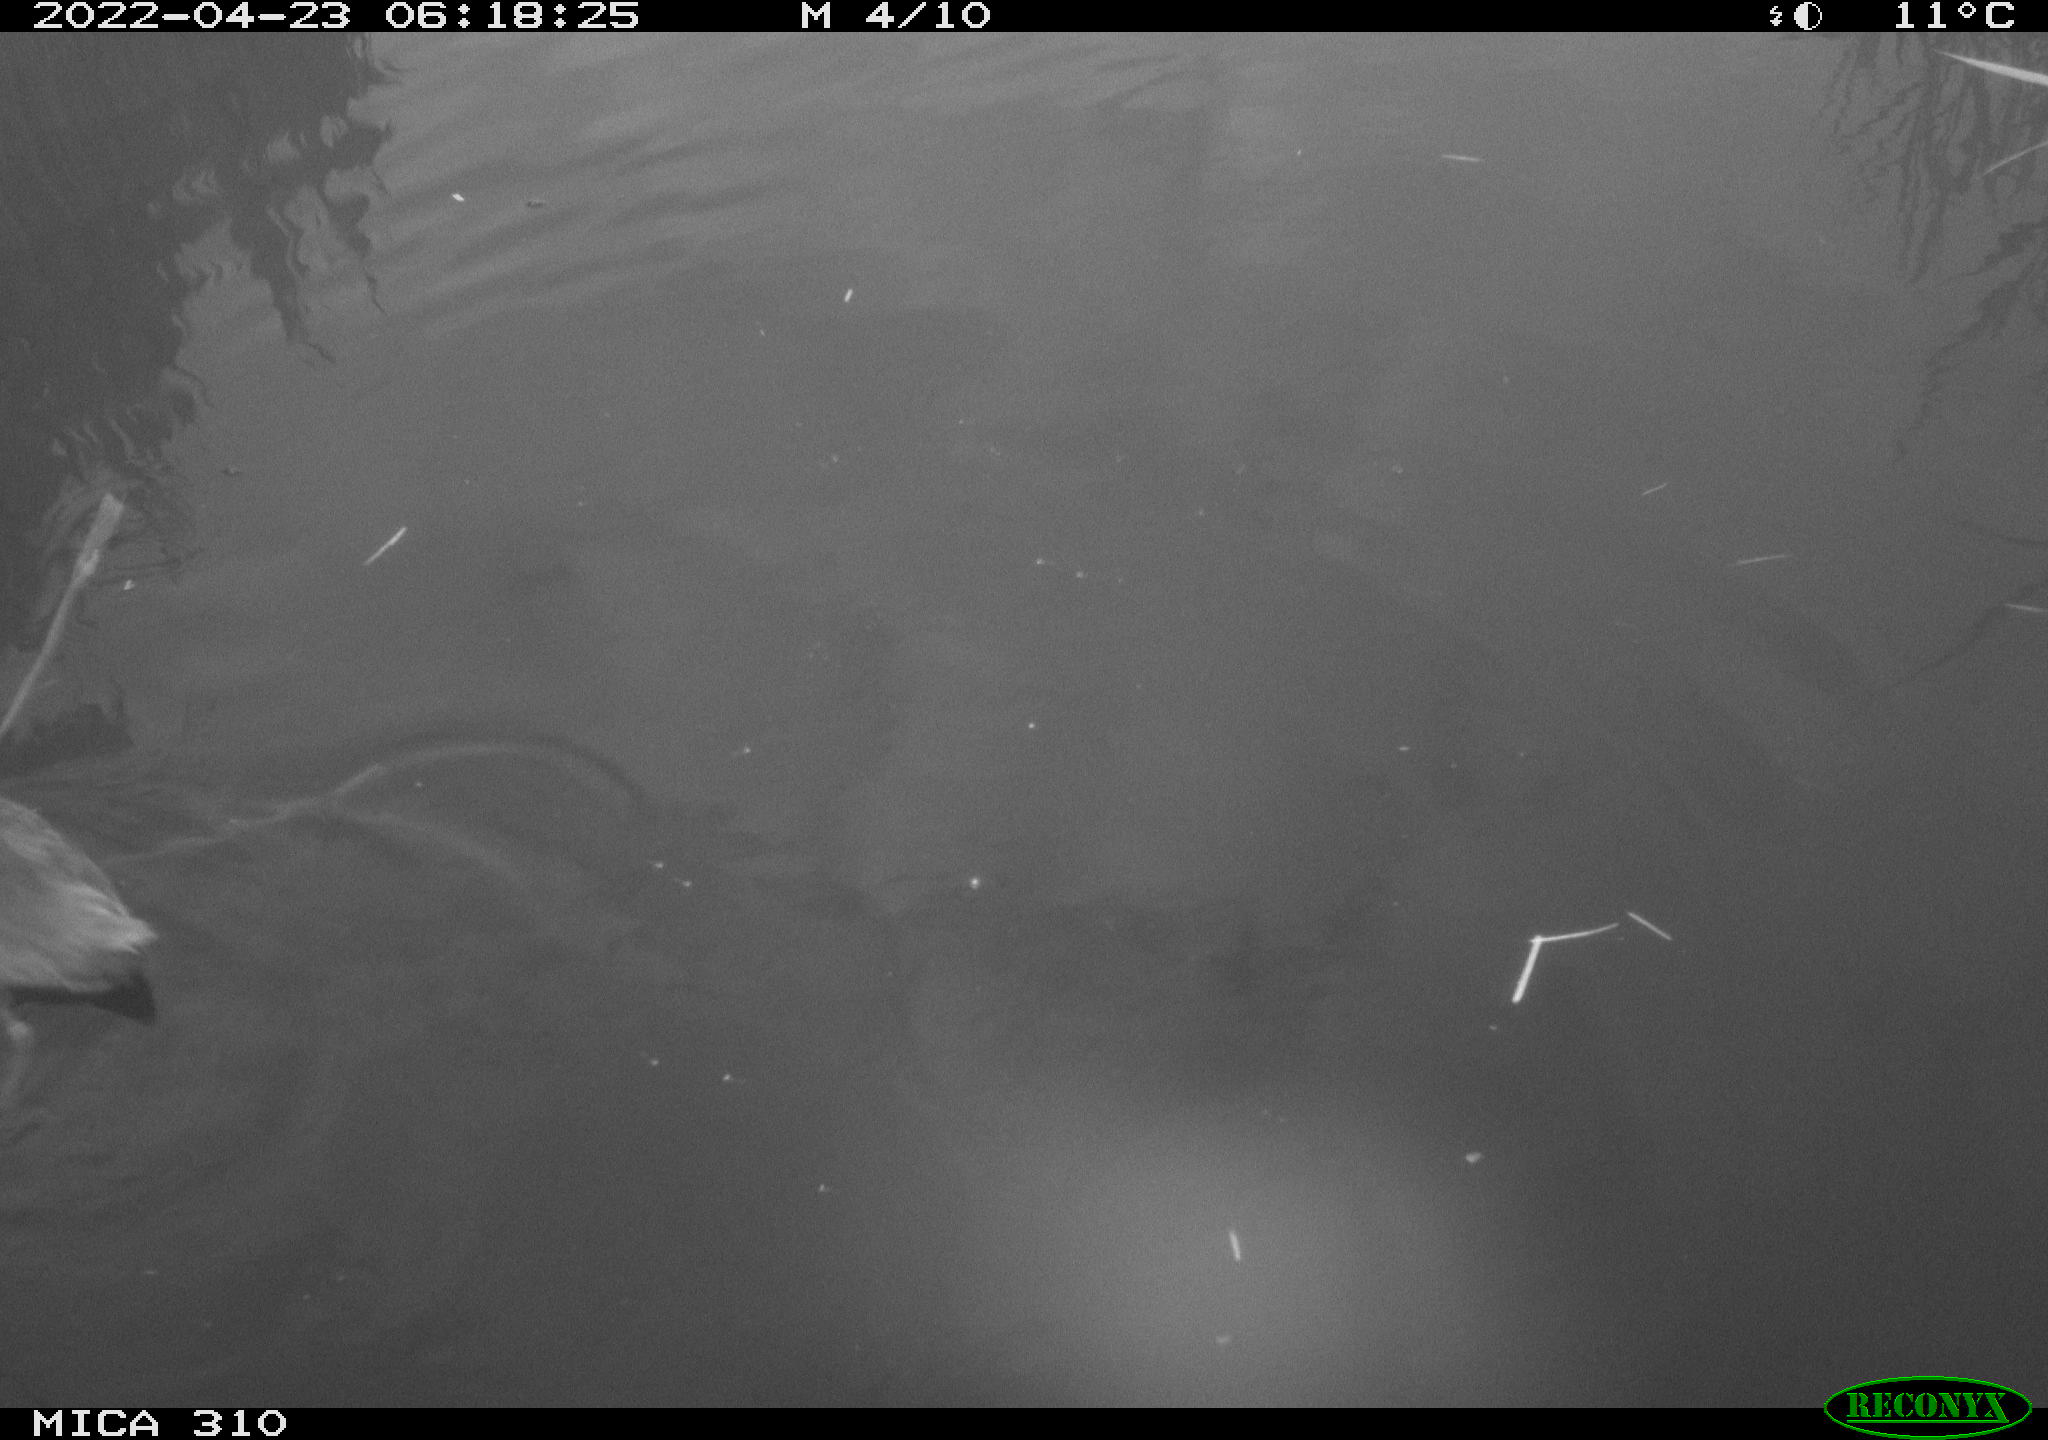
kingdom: Animalia
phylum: Chordata
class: Aves
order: Gruiformes
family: Rallidae
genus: Fulica
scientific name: Fulica atra
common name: Eurasian coot
